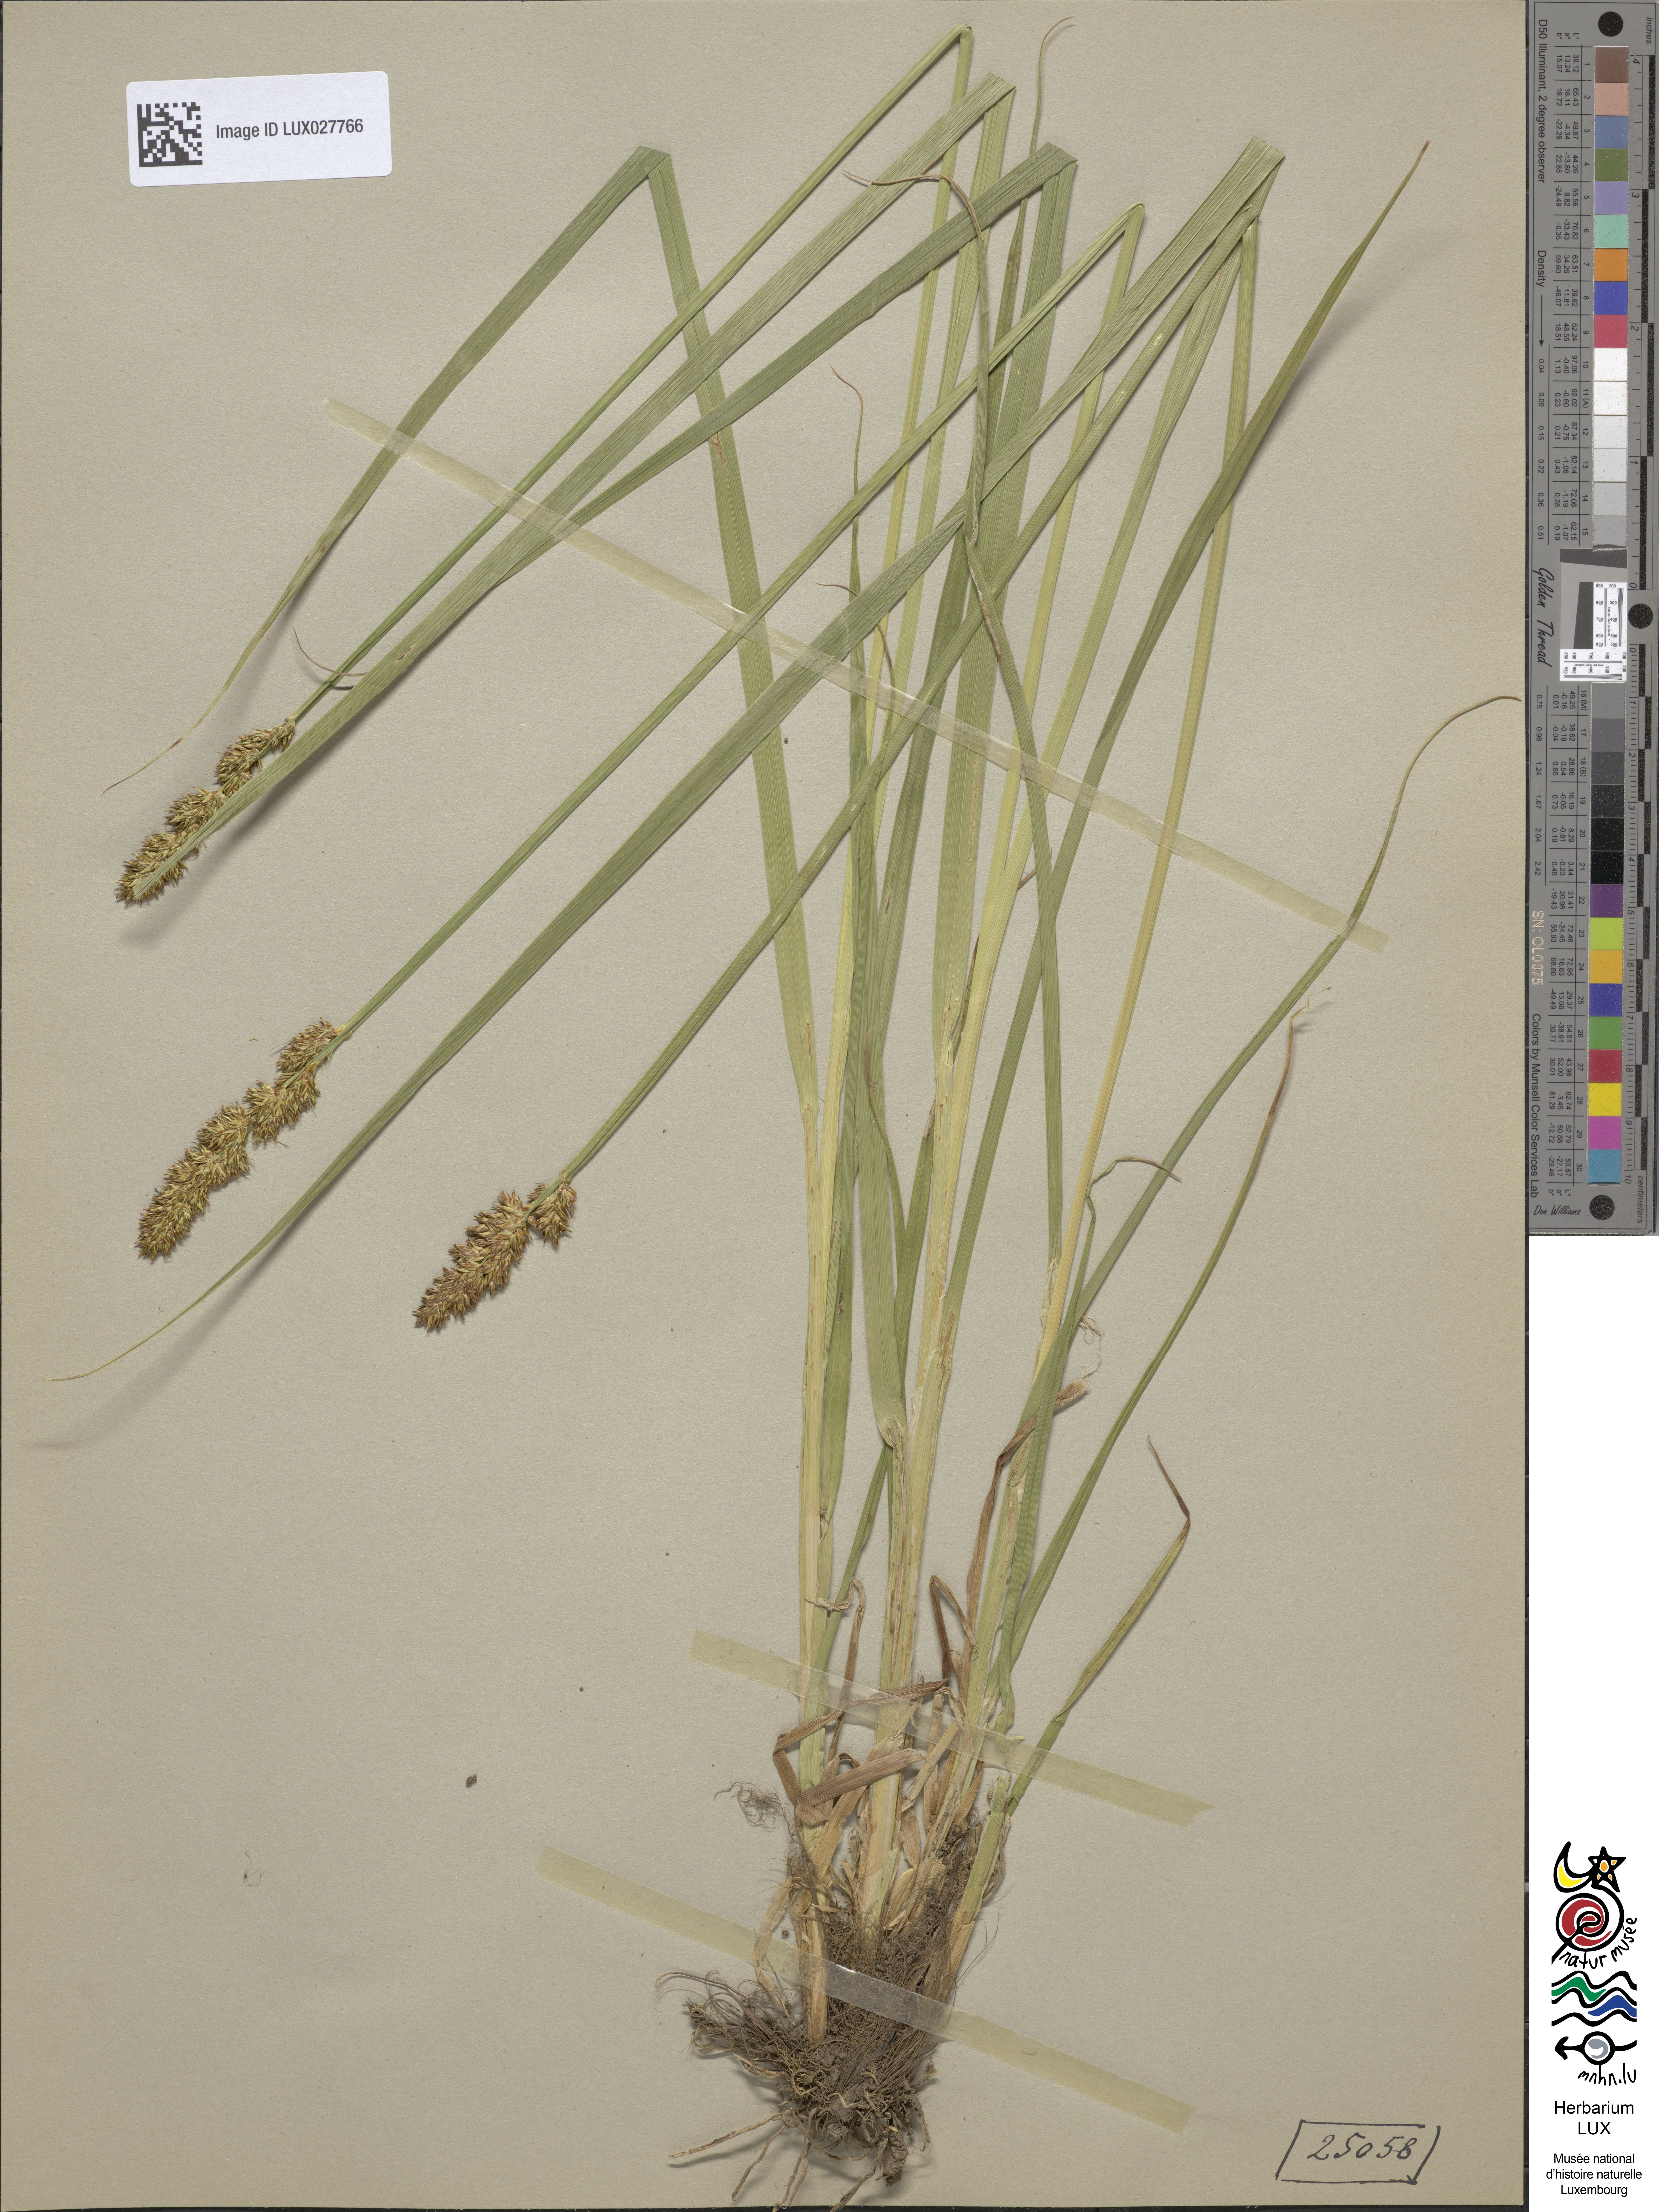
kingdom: Plantae
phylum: Tracheophyta
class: Liliopsida
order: Poales
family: Cyperaceae
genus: Carex
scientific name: Carex vulpina
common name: True fox-sedge
